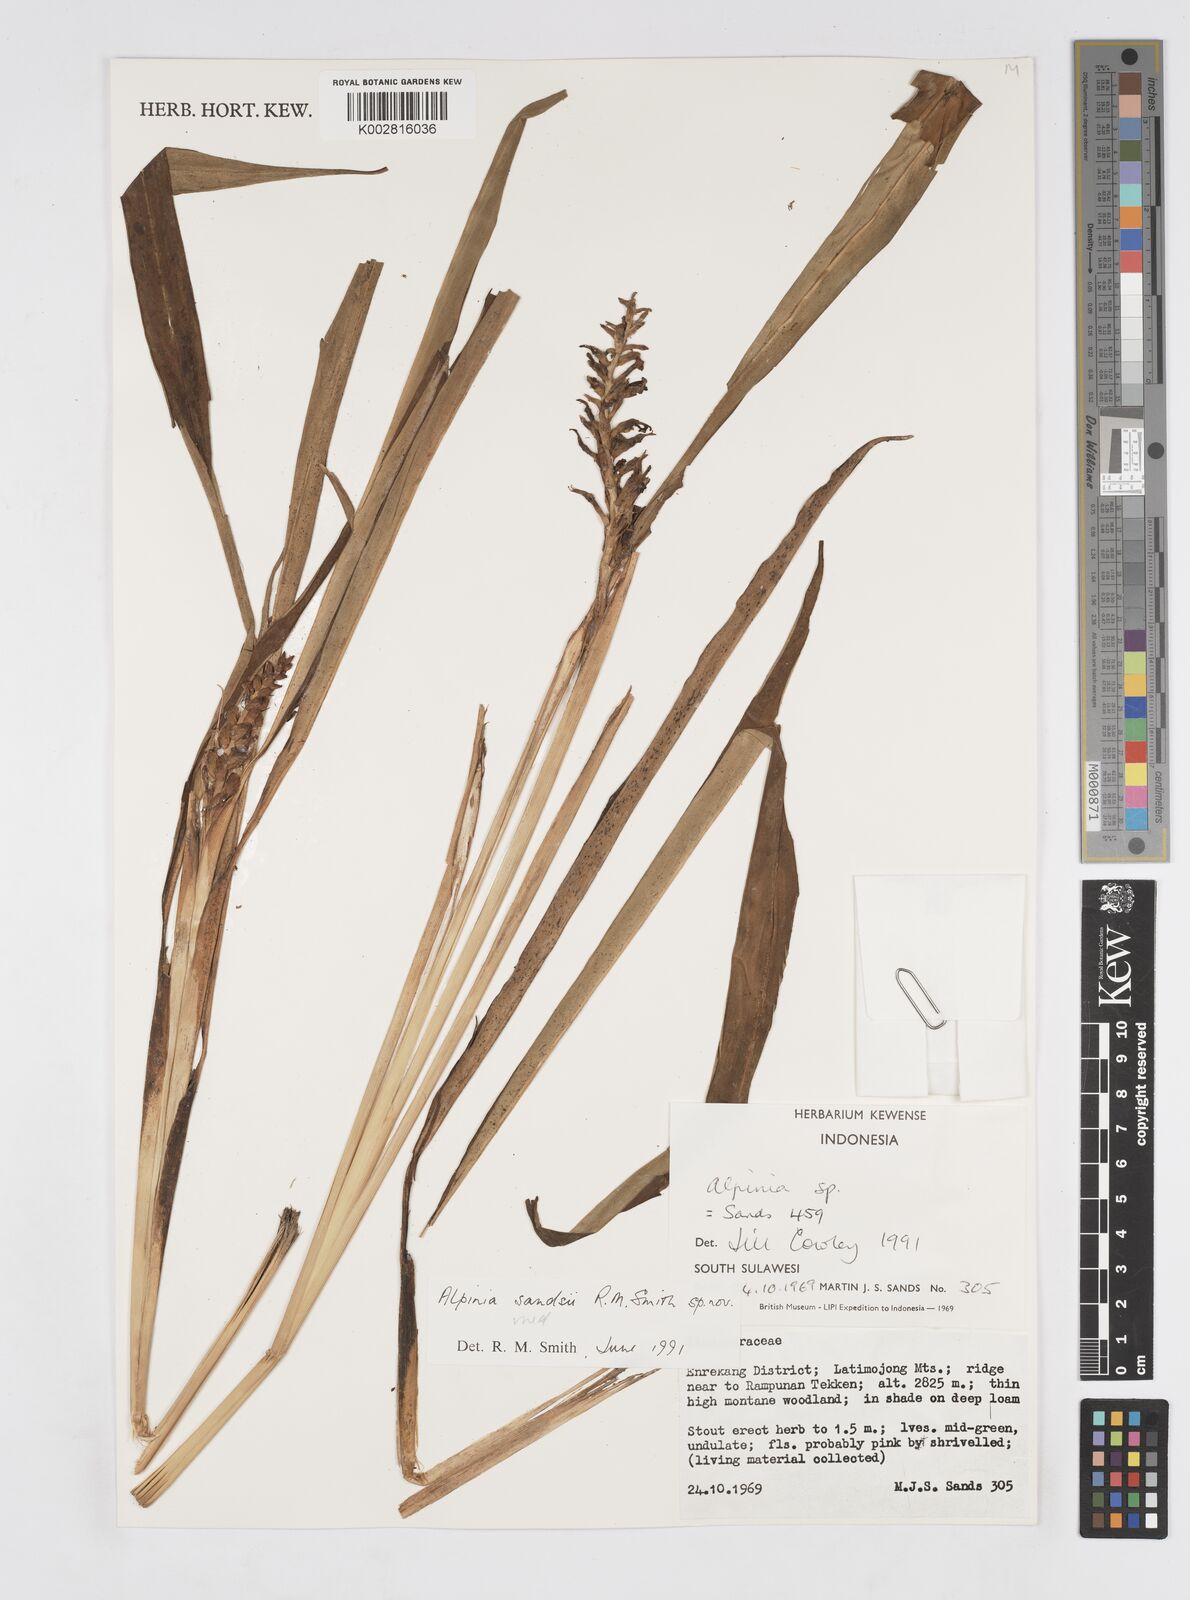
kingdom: Plantae
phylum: Tracheophyta
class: Liliopsida
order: Zingiberales
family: Zingiberaceae
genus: Alpinia
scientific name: Alpinia sandsii
